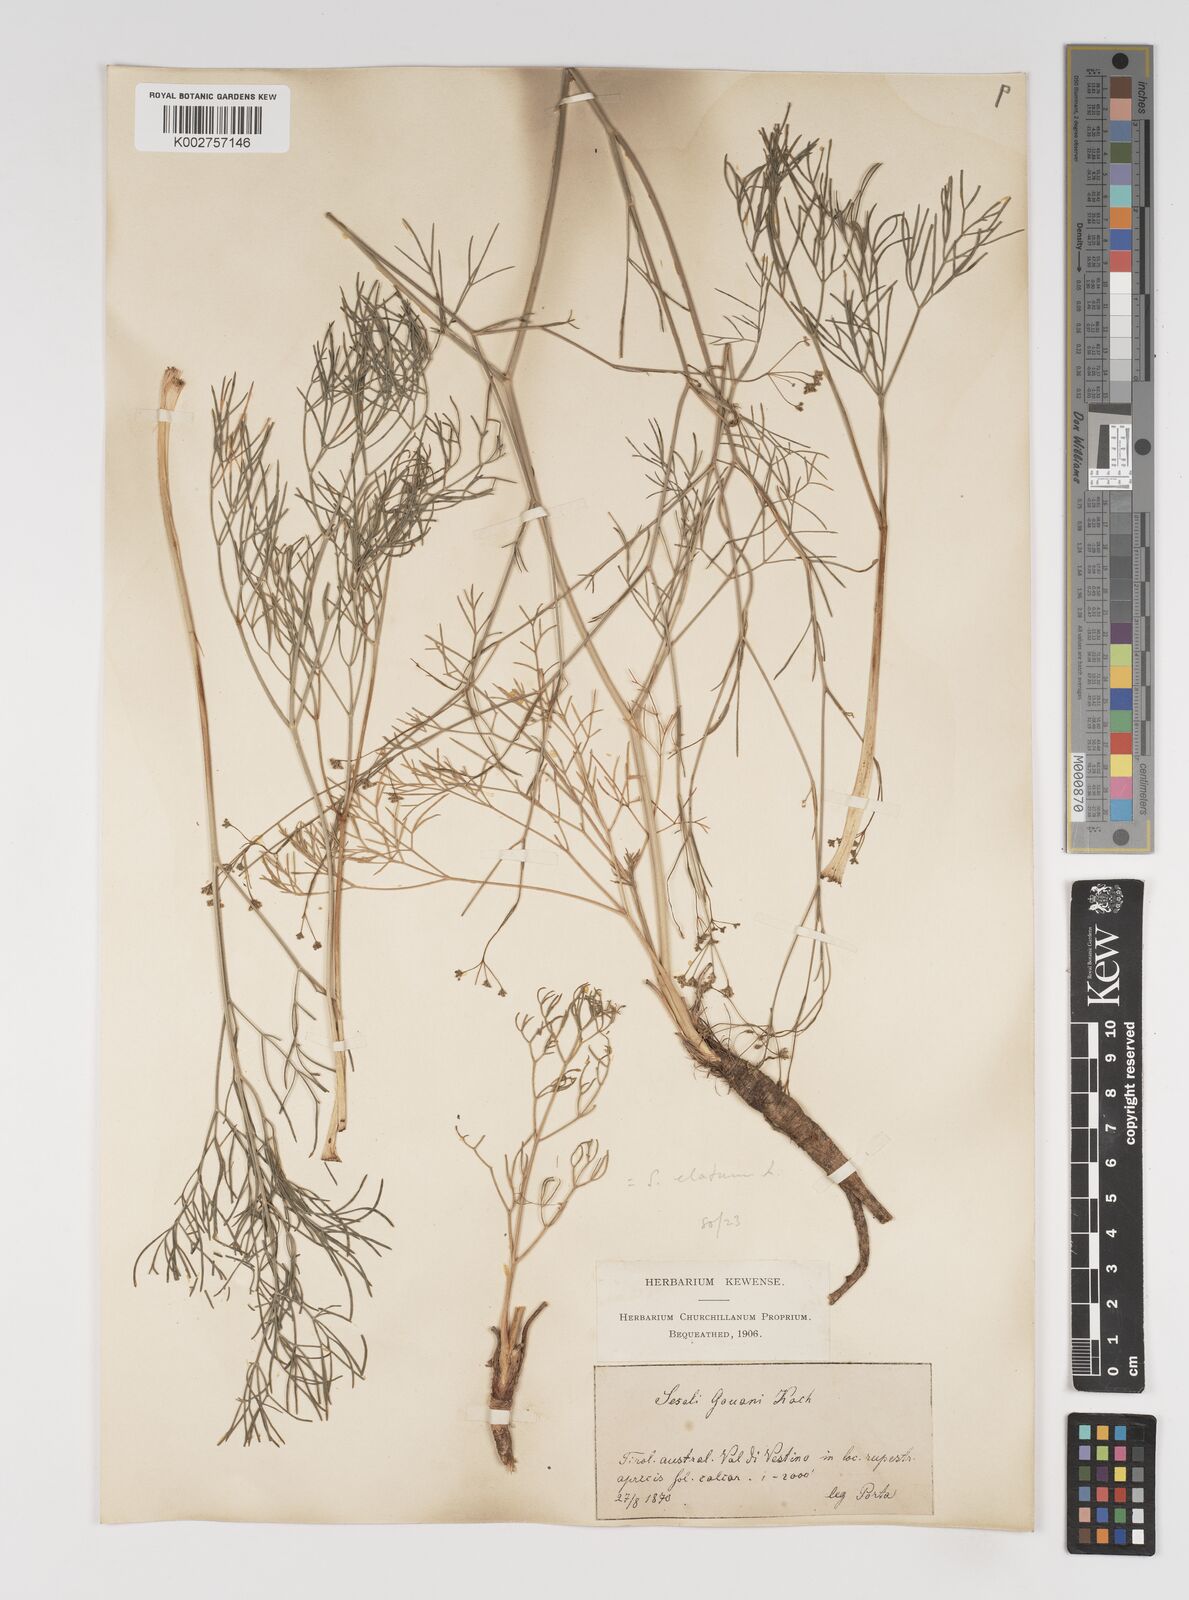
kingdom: Plantae
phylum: Tracheophyta
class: Magnoliopsida
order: Apiales
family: Apiaceae
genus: Seseli
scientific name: Seseli longifolium
